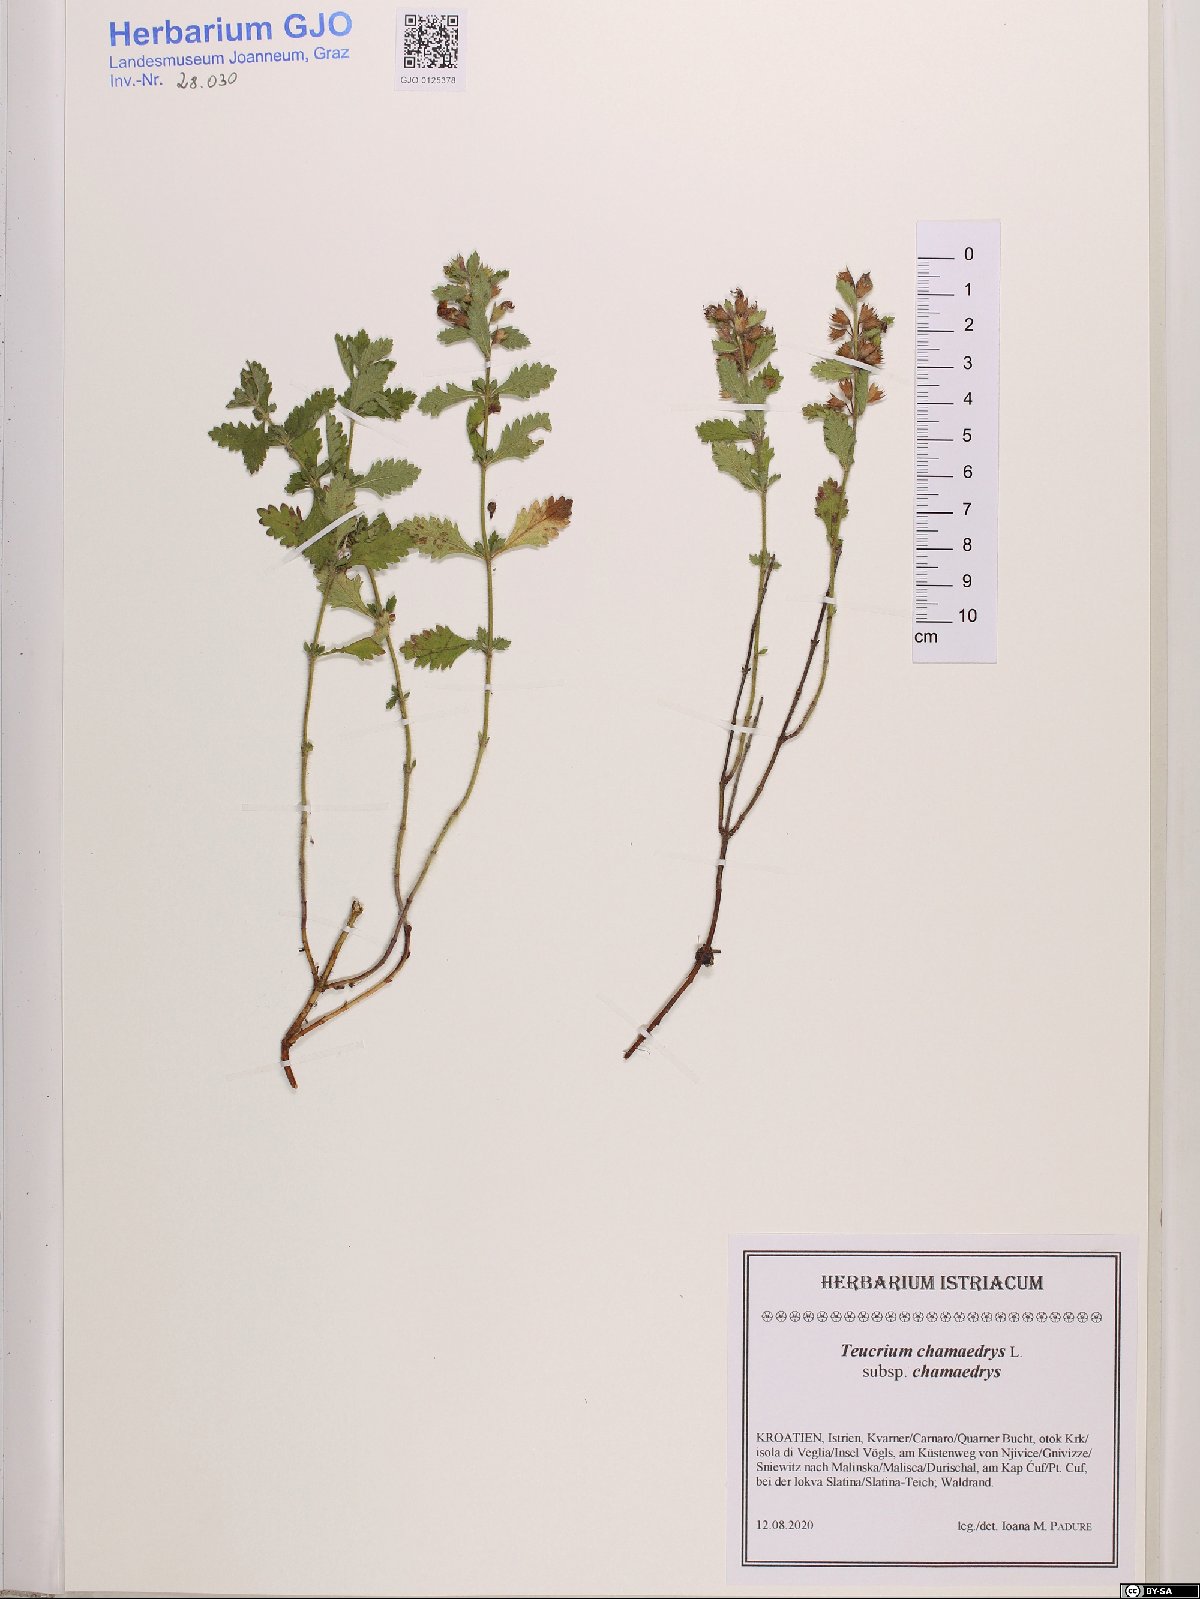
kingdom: Plantae
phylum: Tracheophyta
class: Magnoliopsida
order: Lamiales
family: Lamiaceae
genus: Teucrium
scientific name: Teucrium chamaedrys
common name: Wall germander
